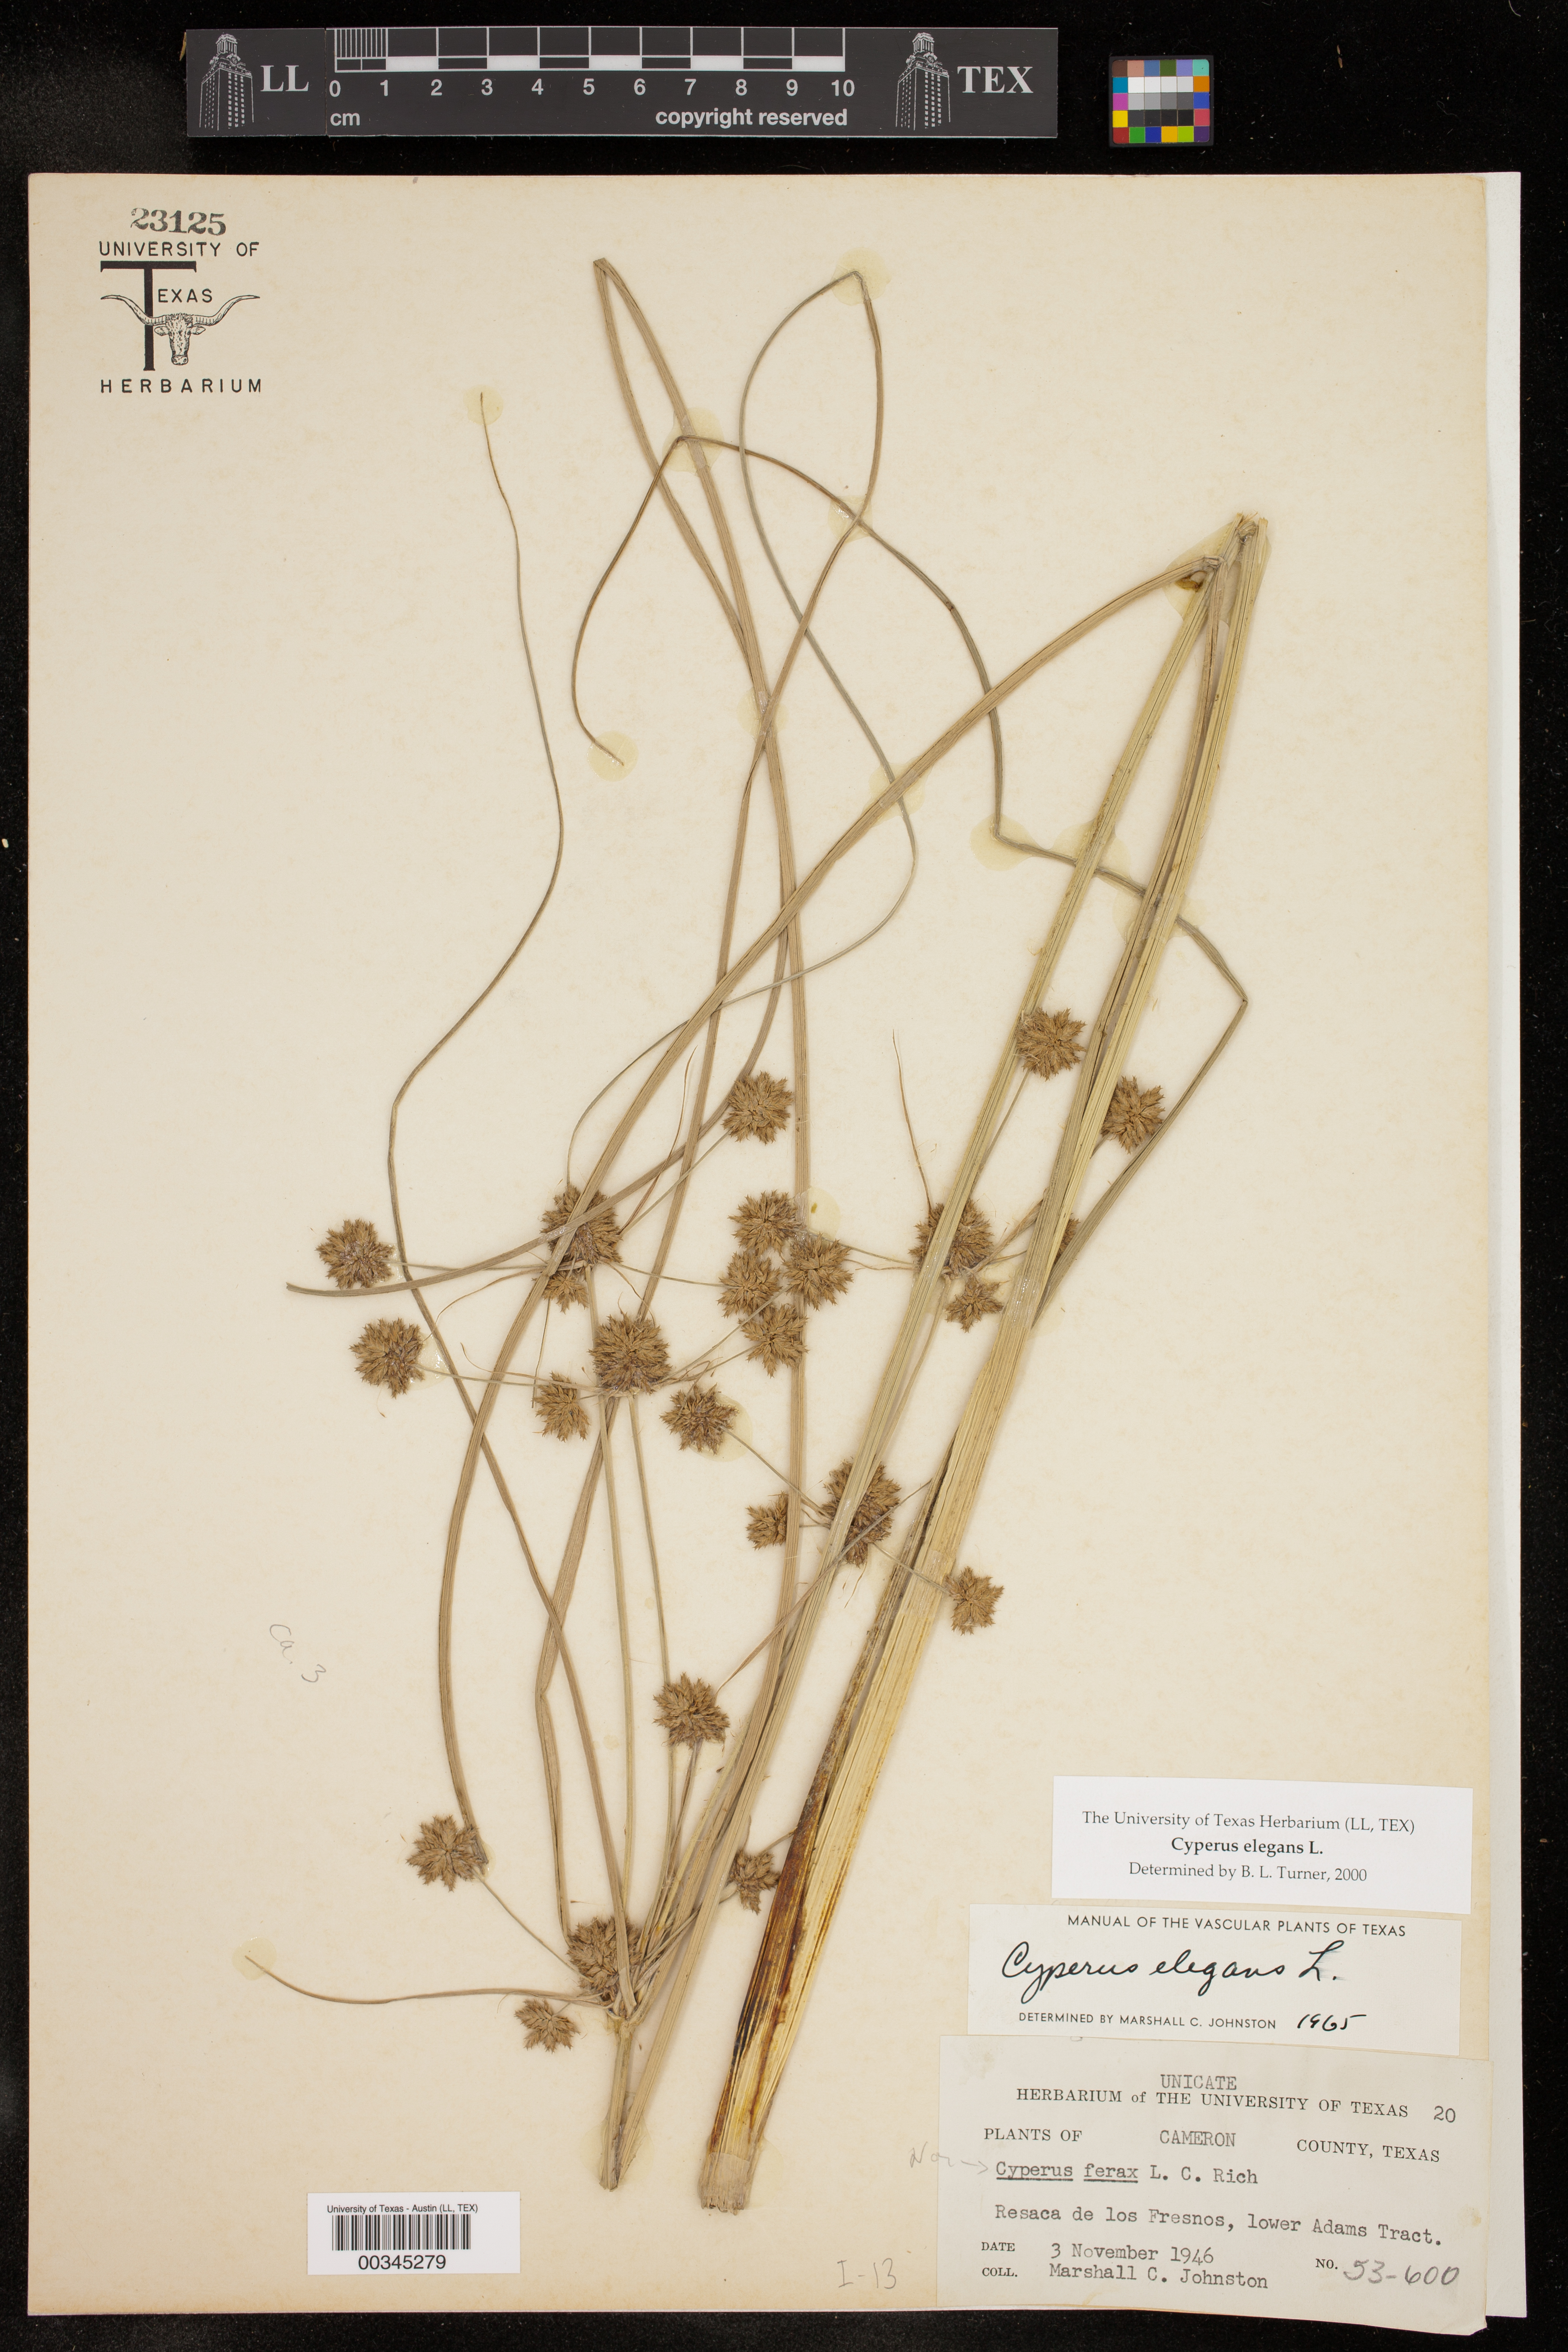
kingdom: Plantae
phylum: Tracheophyta
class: Liliopsida
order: Poales
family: Cyperaceae
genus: Cyperus
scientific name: Cyperus elegans
